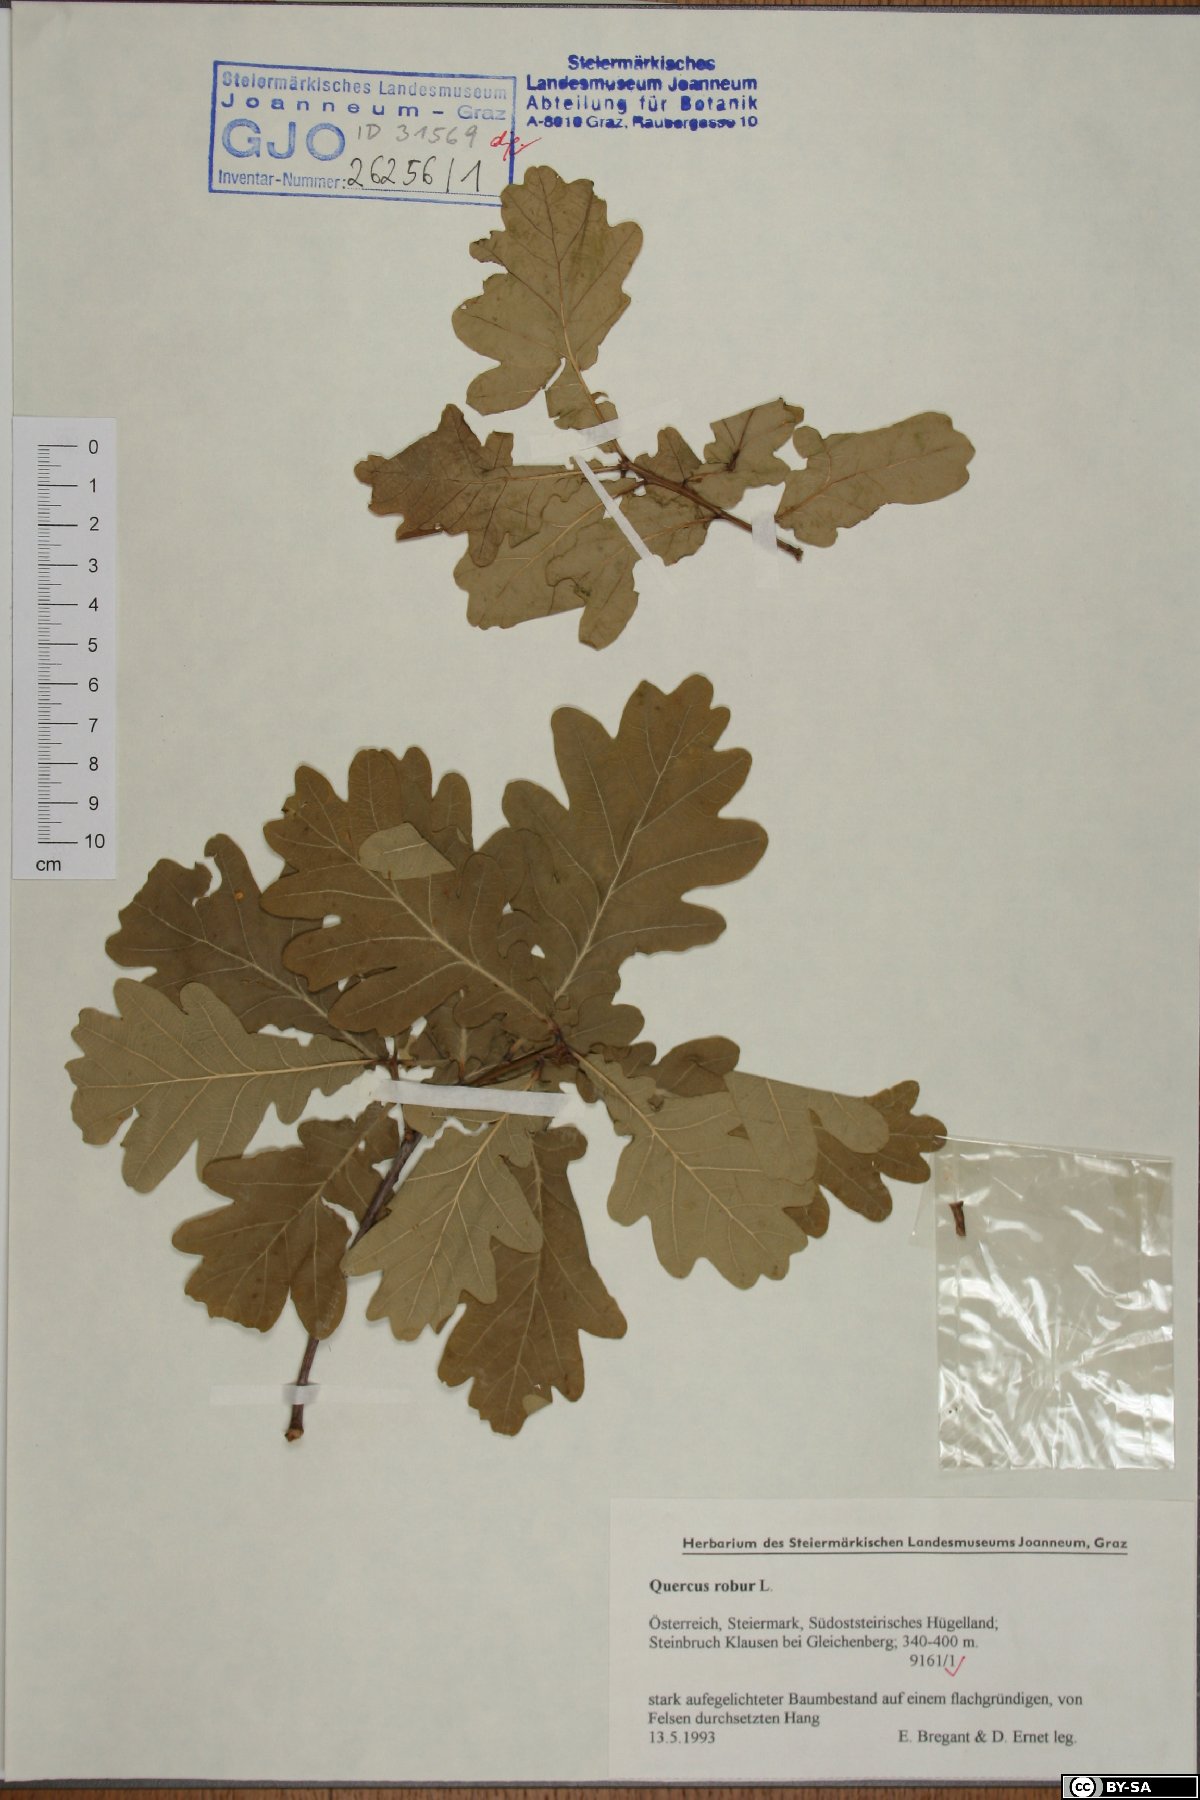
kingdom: Plantae
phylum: Tracheophyta
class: Magnoliopsida
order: Fagales
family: Fagaceae
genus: Quercus
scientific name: Quercus robur
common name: Pedunculate oak
